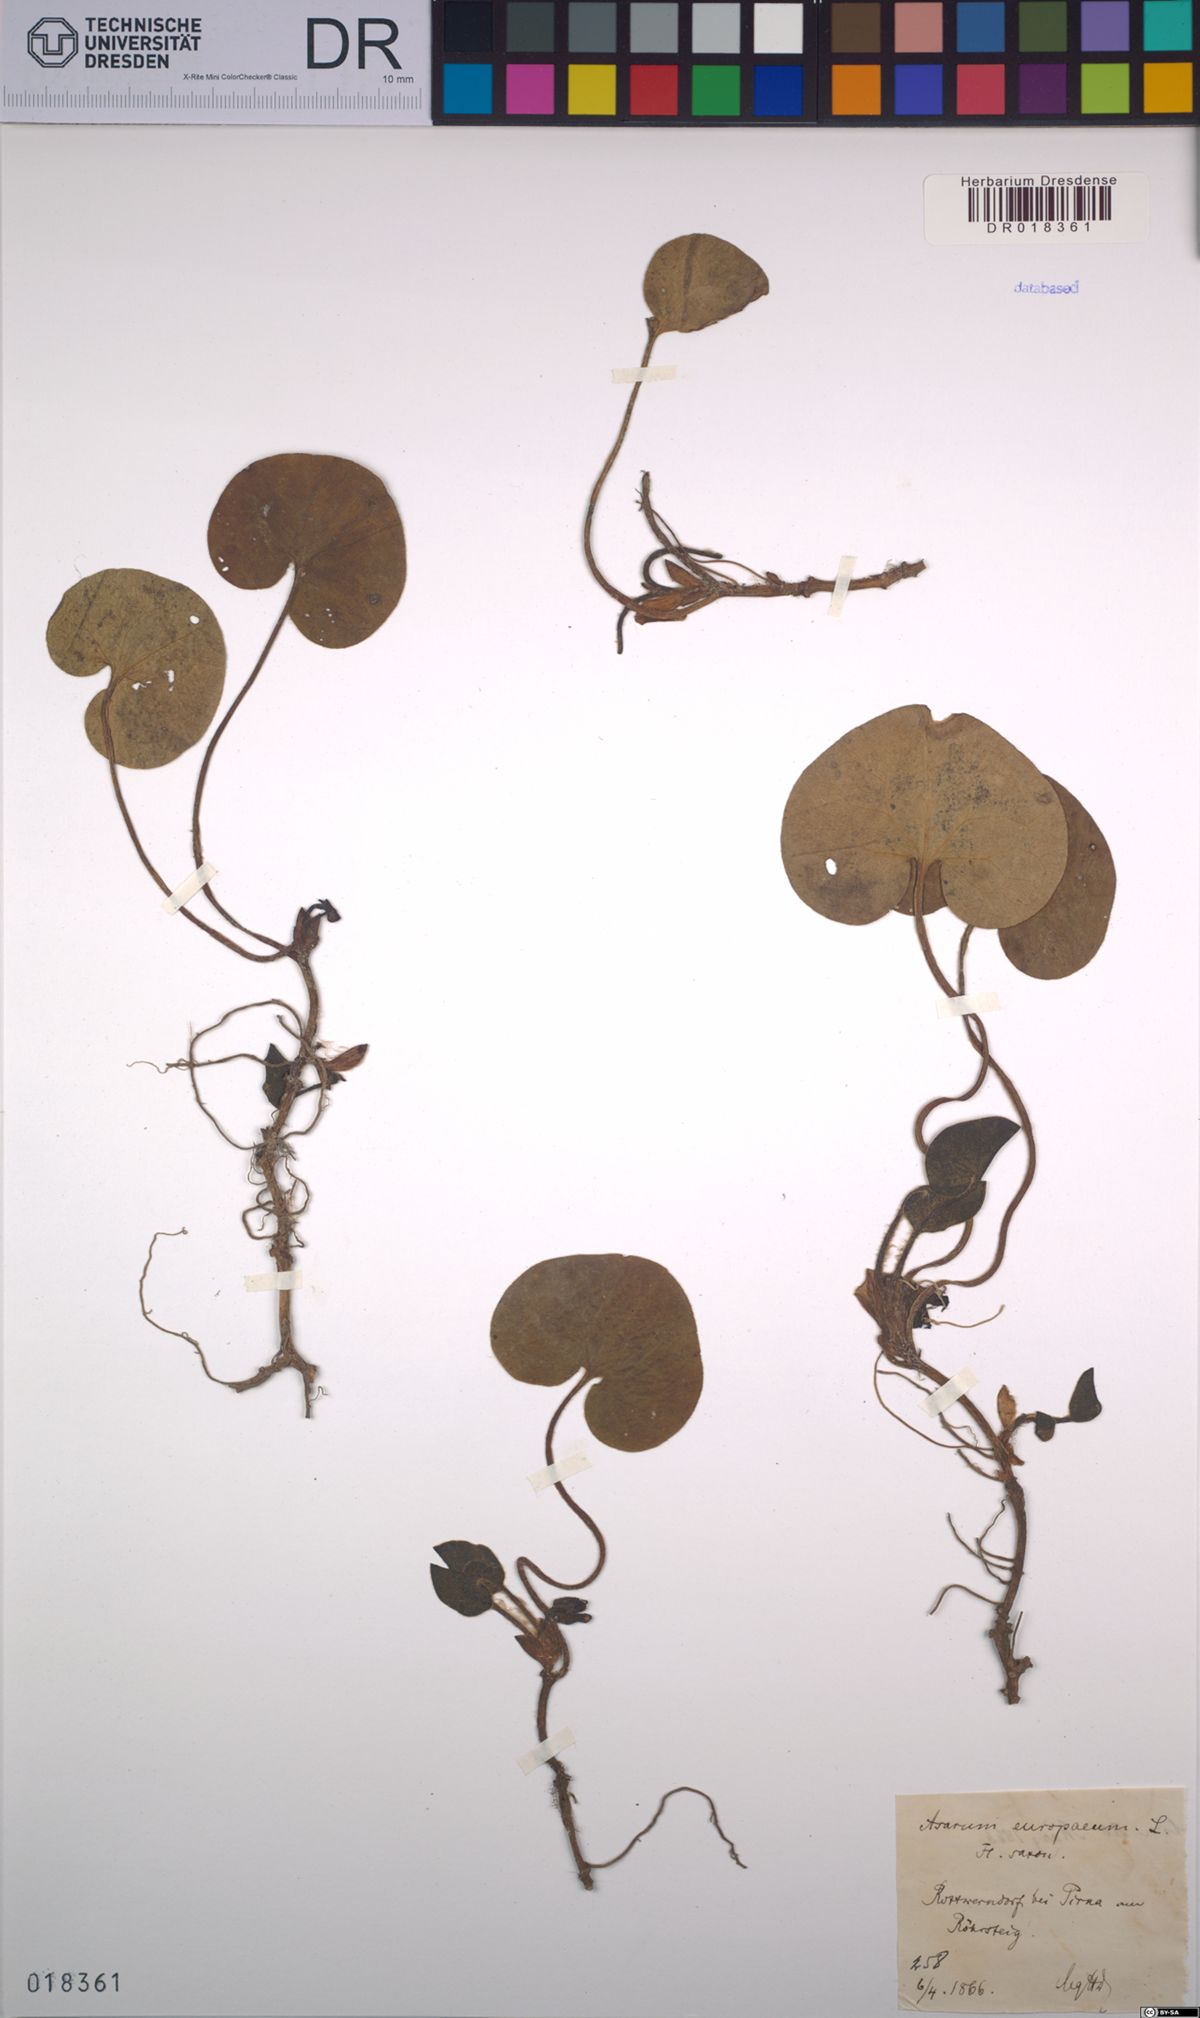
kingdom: Plantae
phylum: Tracheophyta
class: Magnoliopsida
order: Piperales
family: Aristolochiaceae
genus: Asarum
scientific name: Asarum europaeum
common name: Asarabacca
